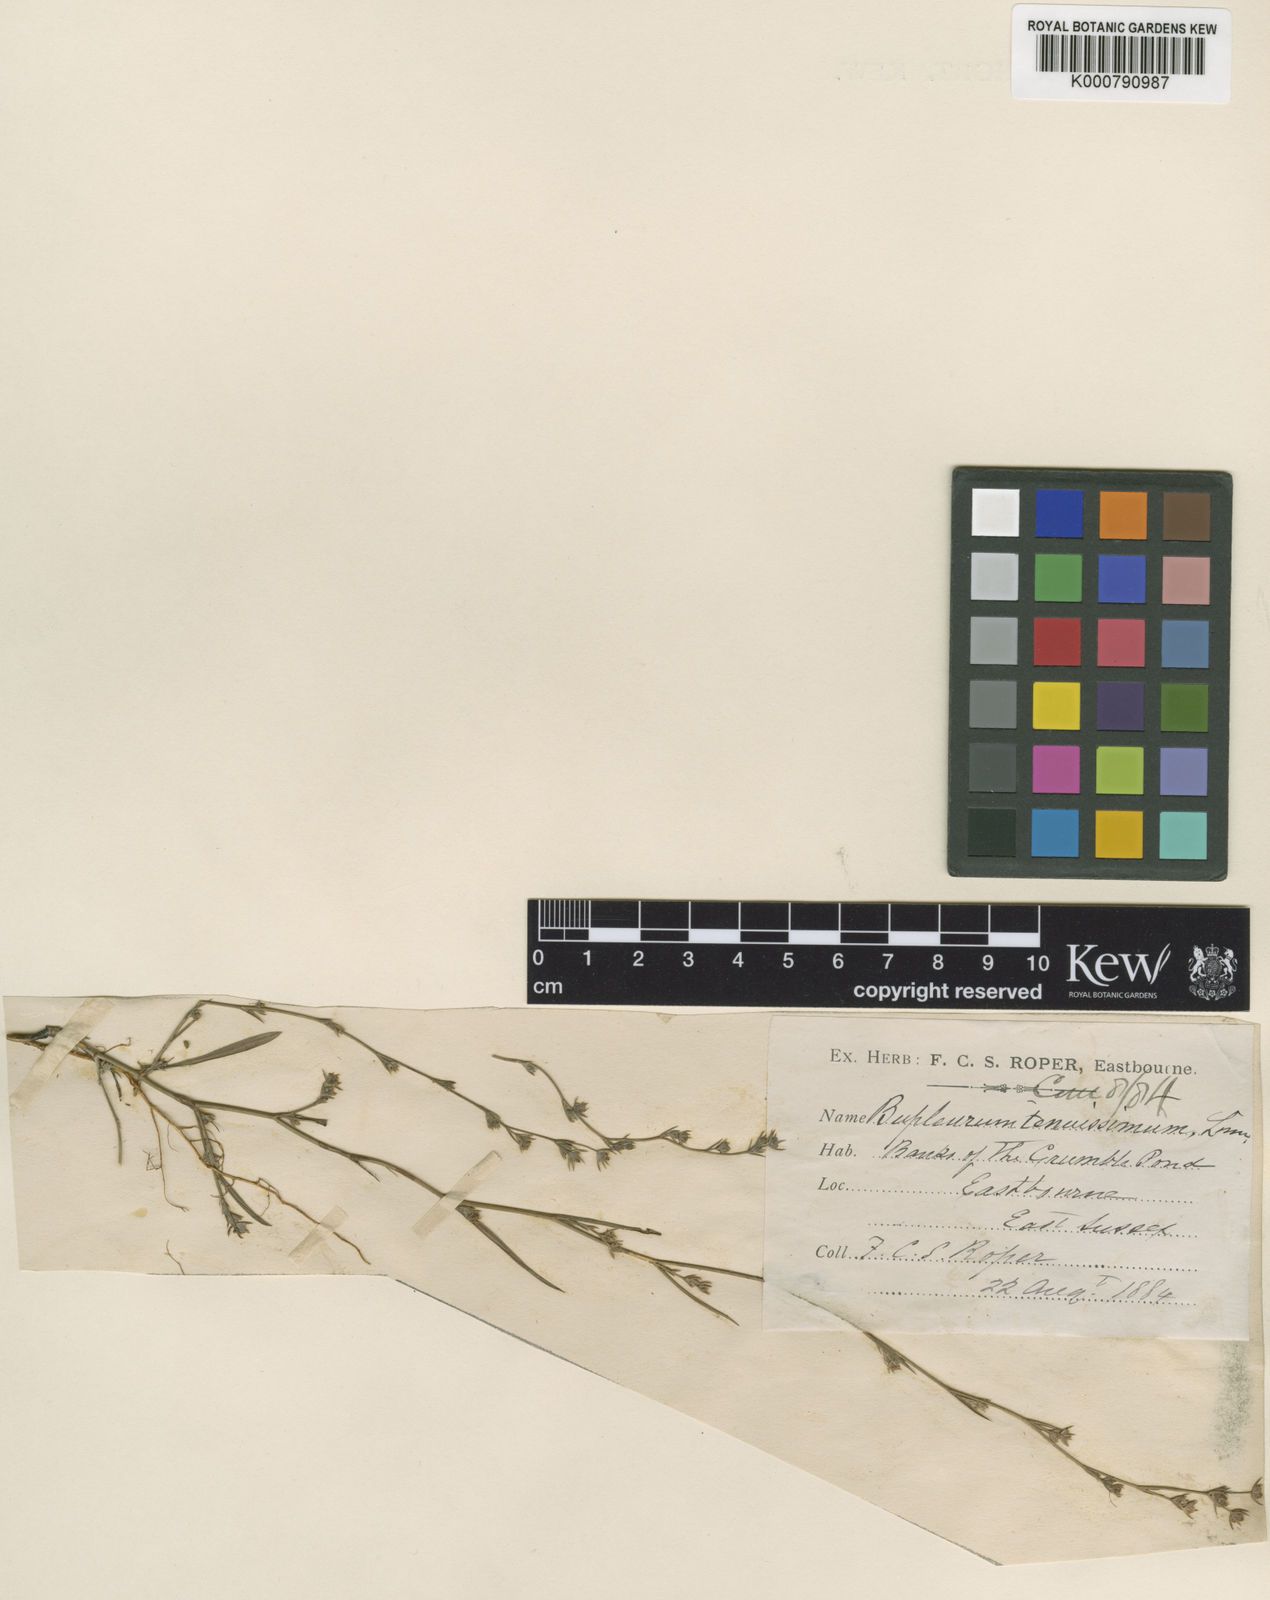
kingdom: Plantae
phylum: Tracheophyta
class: Magnoliopsida
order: Apiales
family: Apiaceae
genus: Bupleurum
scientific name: Bupleurum tenuissimum
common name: Slender hare's-ear
